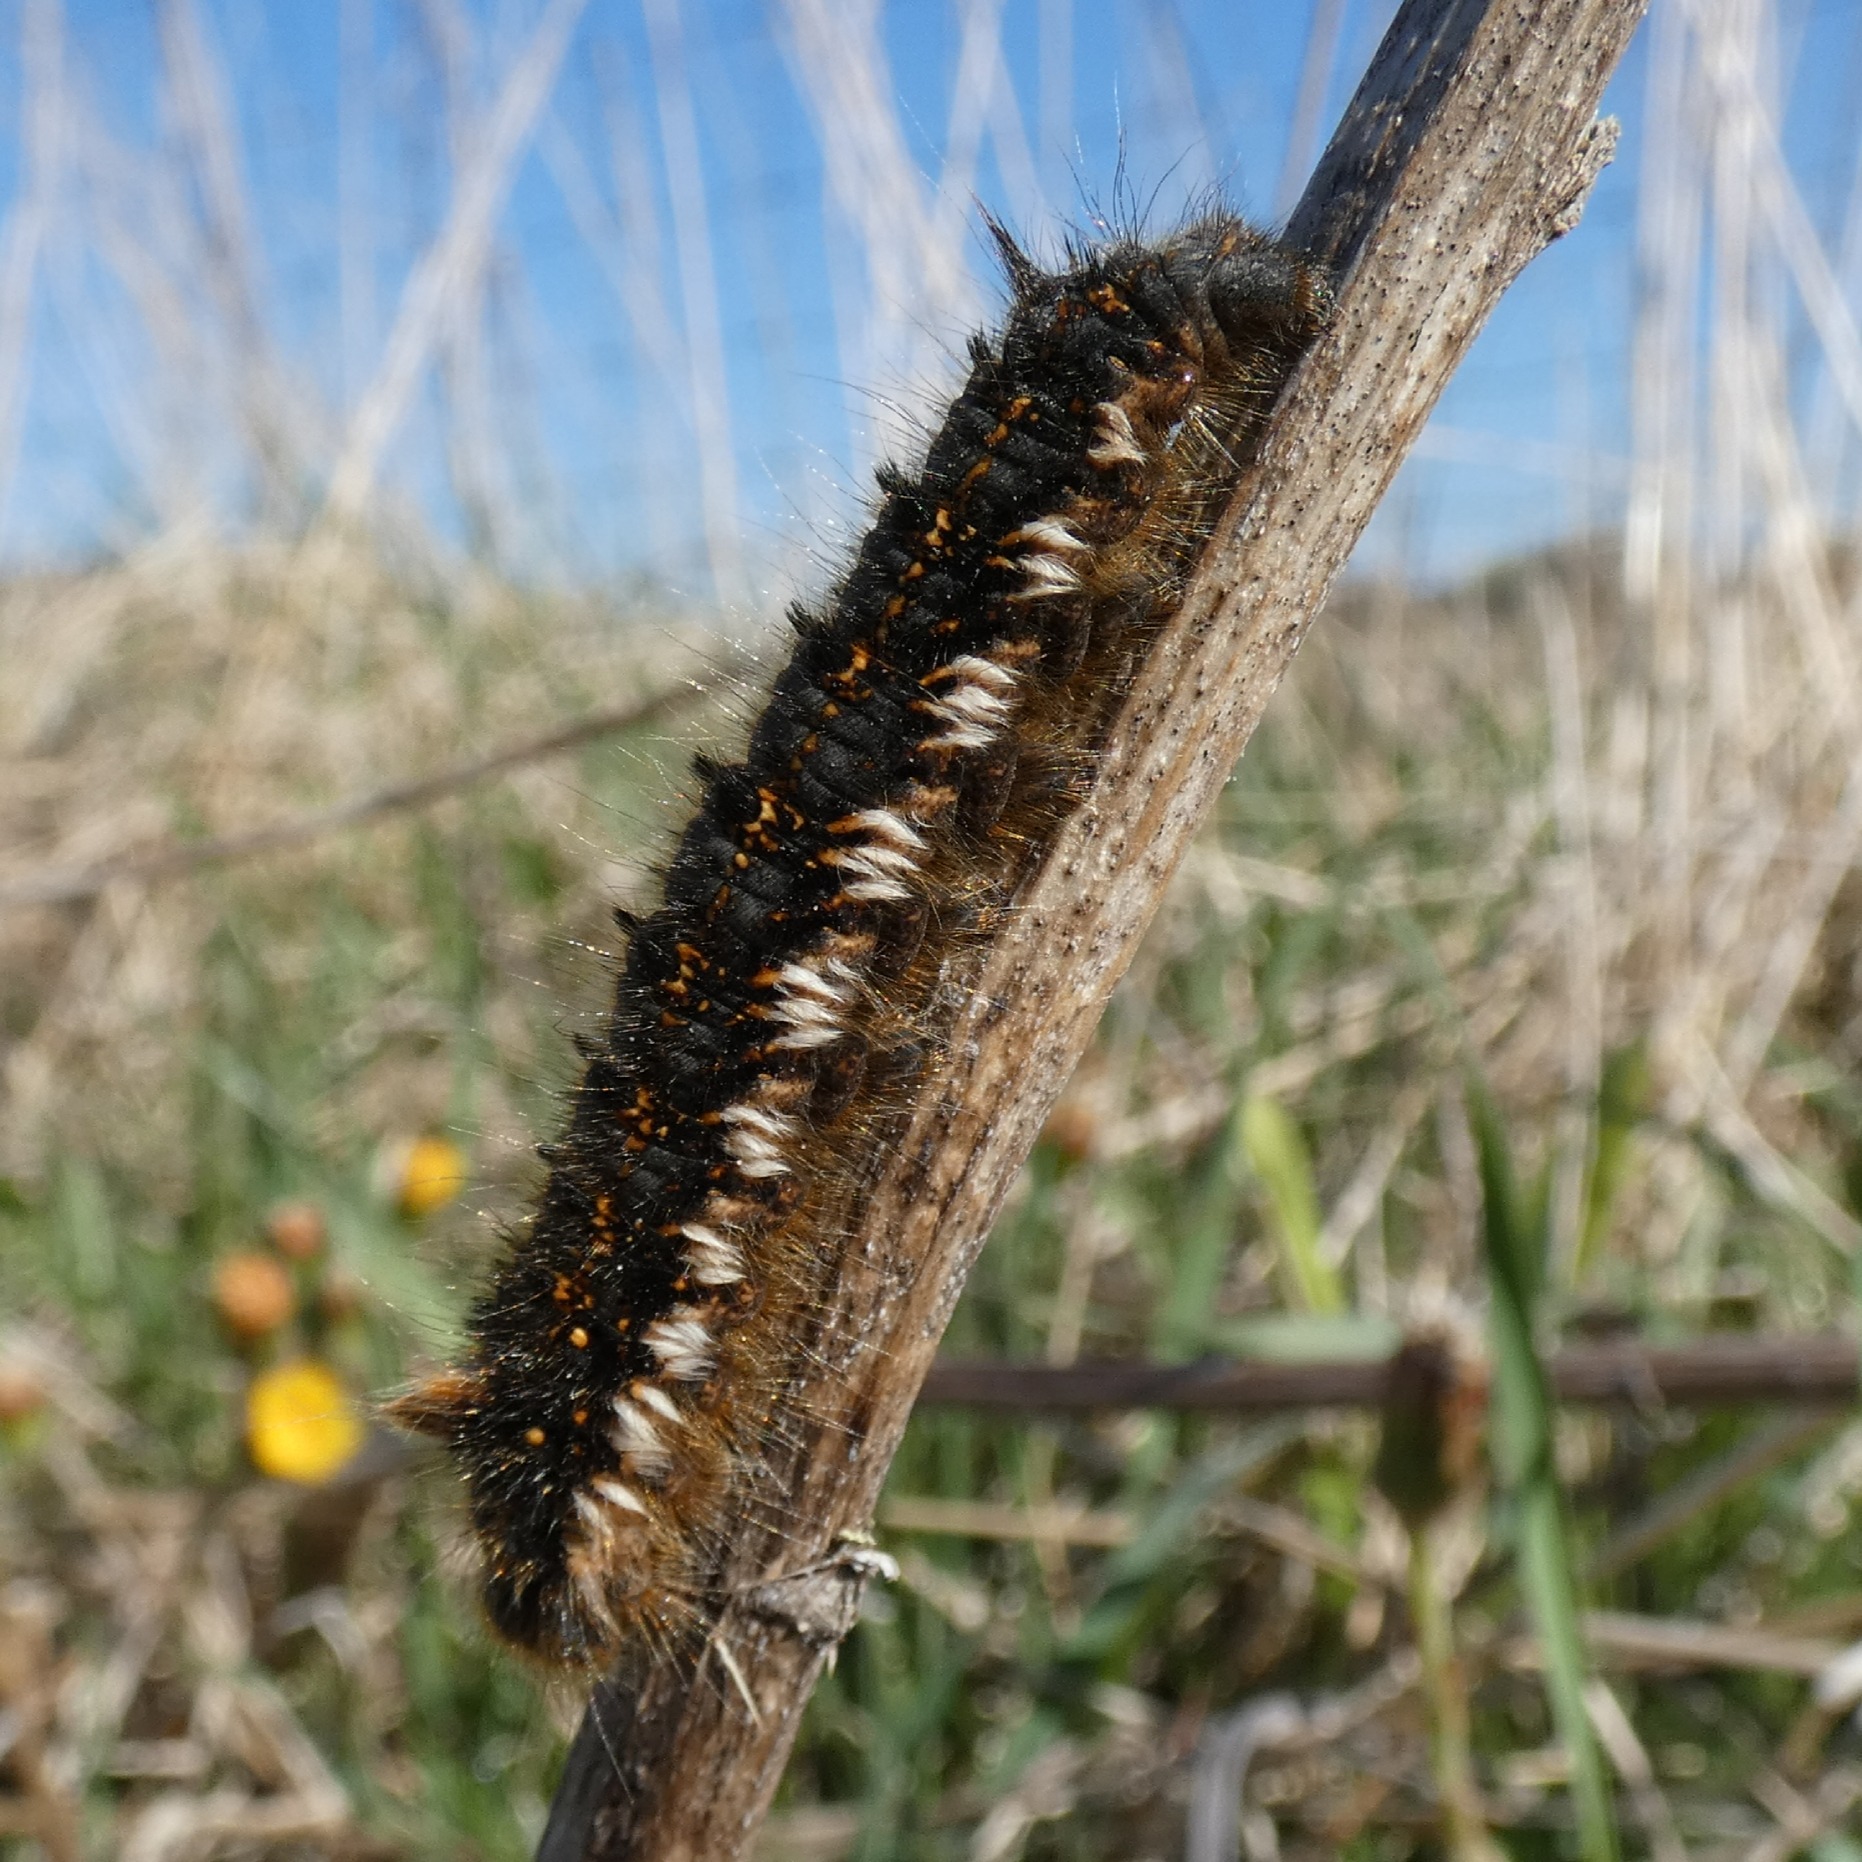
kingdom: Animalia
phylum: Arthropoda
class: Insecta
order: Lepidoptera
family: Lasiocampidae
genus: Euthrix
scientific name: Euthrix potatoria
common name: Græsspinder
